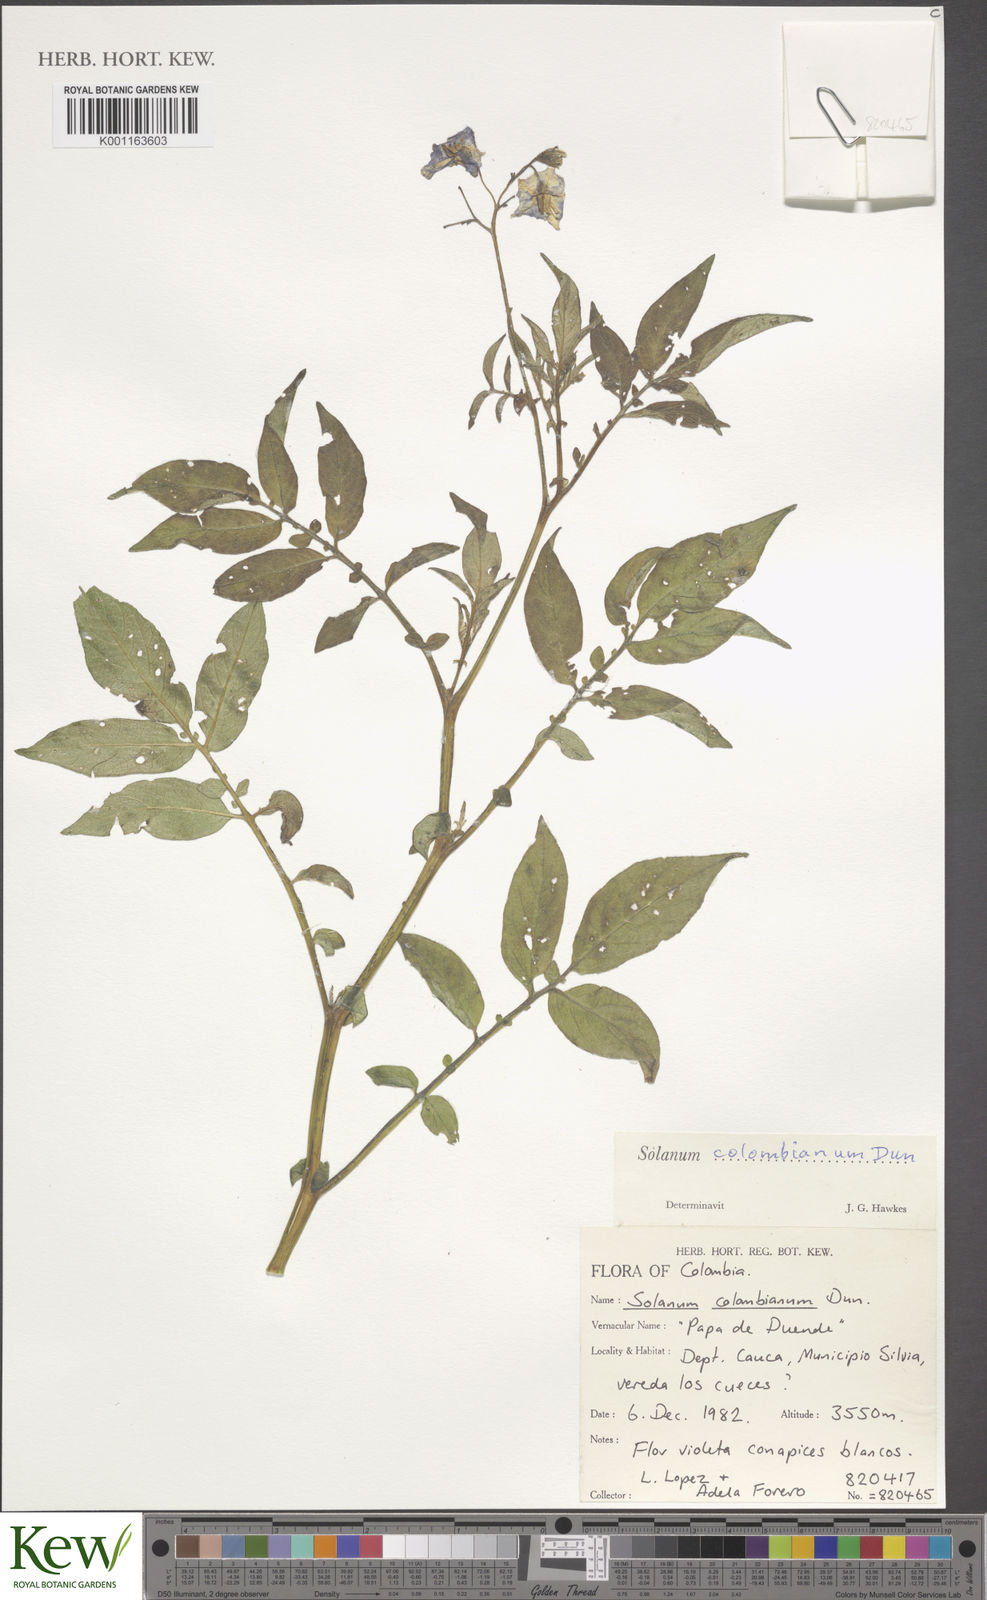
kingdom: Plantae
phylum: Tracheophyta
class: Magnoliopsida
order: Solanales
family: Solanaceae
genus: Solanum
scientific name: Solanum colombianum
